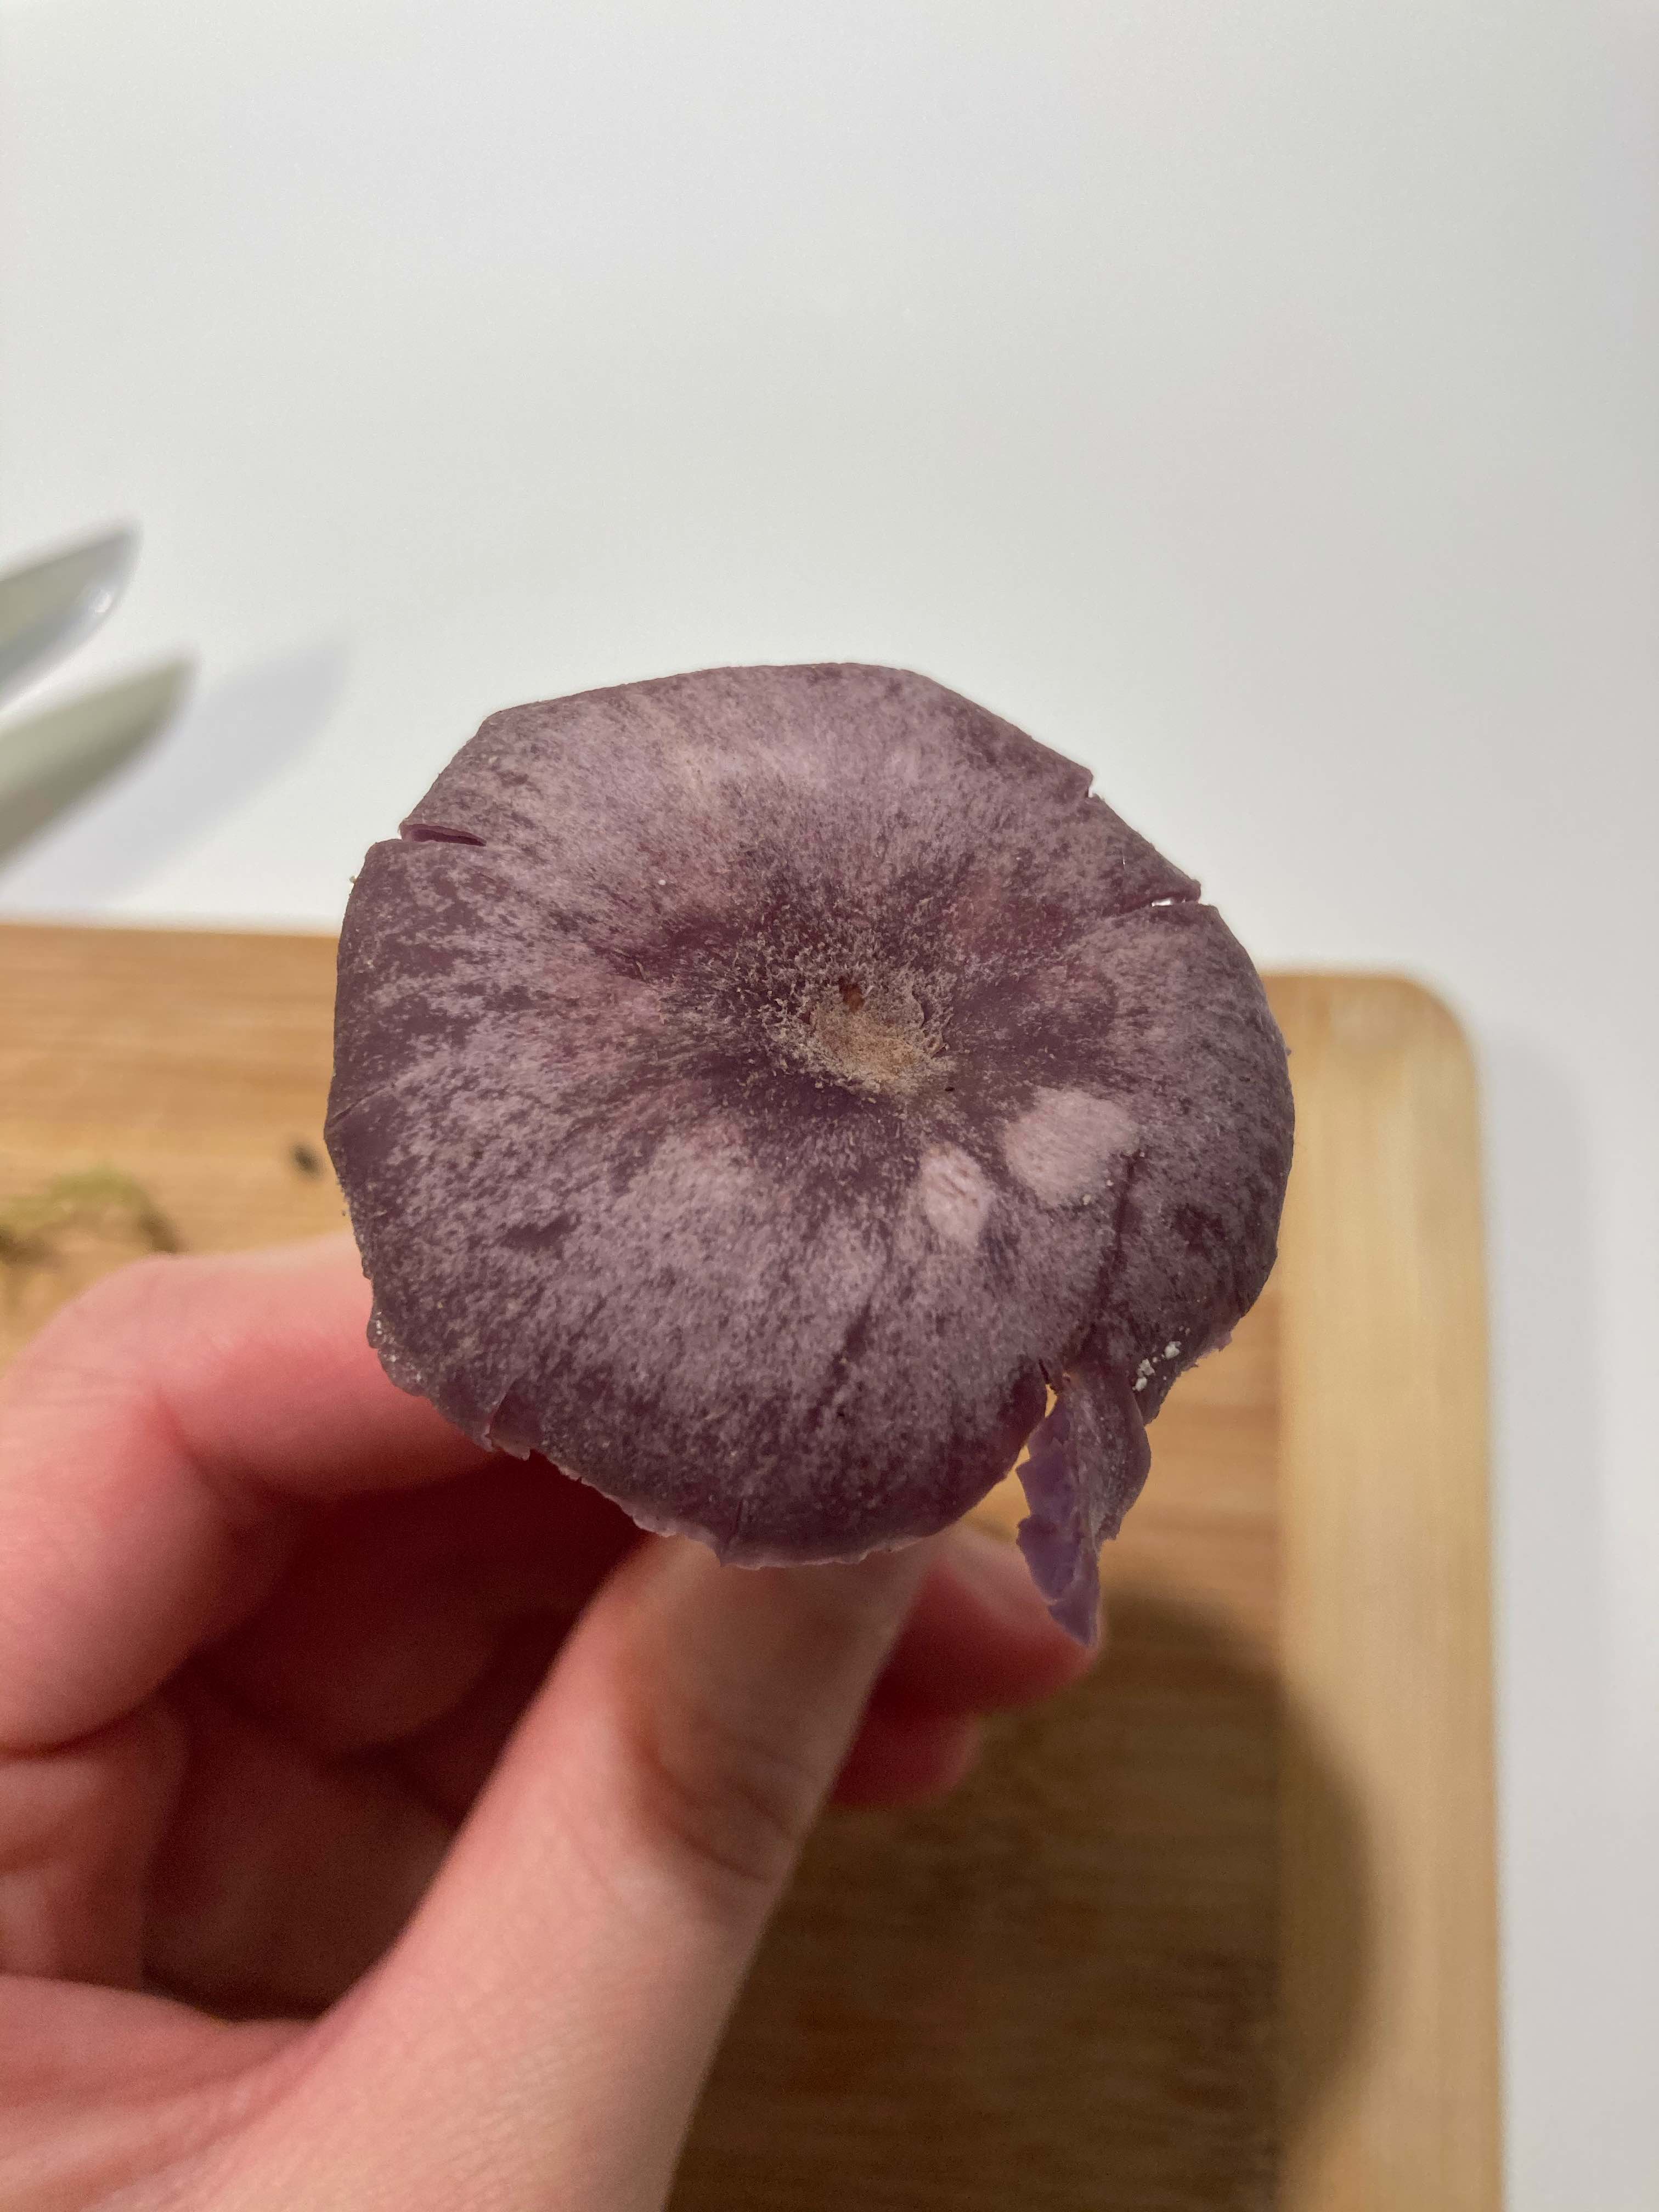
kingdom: Fungi
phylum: Basidiomycota
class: Agaricomycetes
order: Agaricales
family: Hydnangiaceae
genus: Laccaria
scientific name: Laccaria amethystina
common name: violet ametysthat
